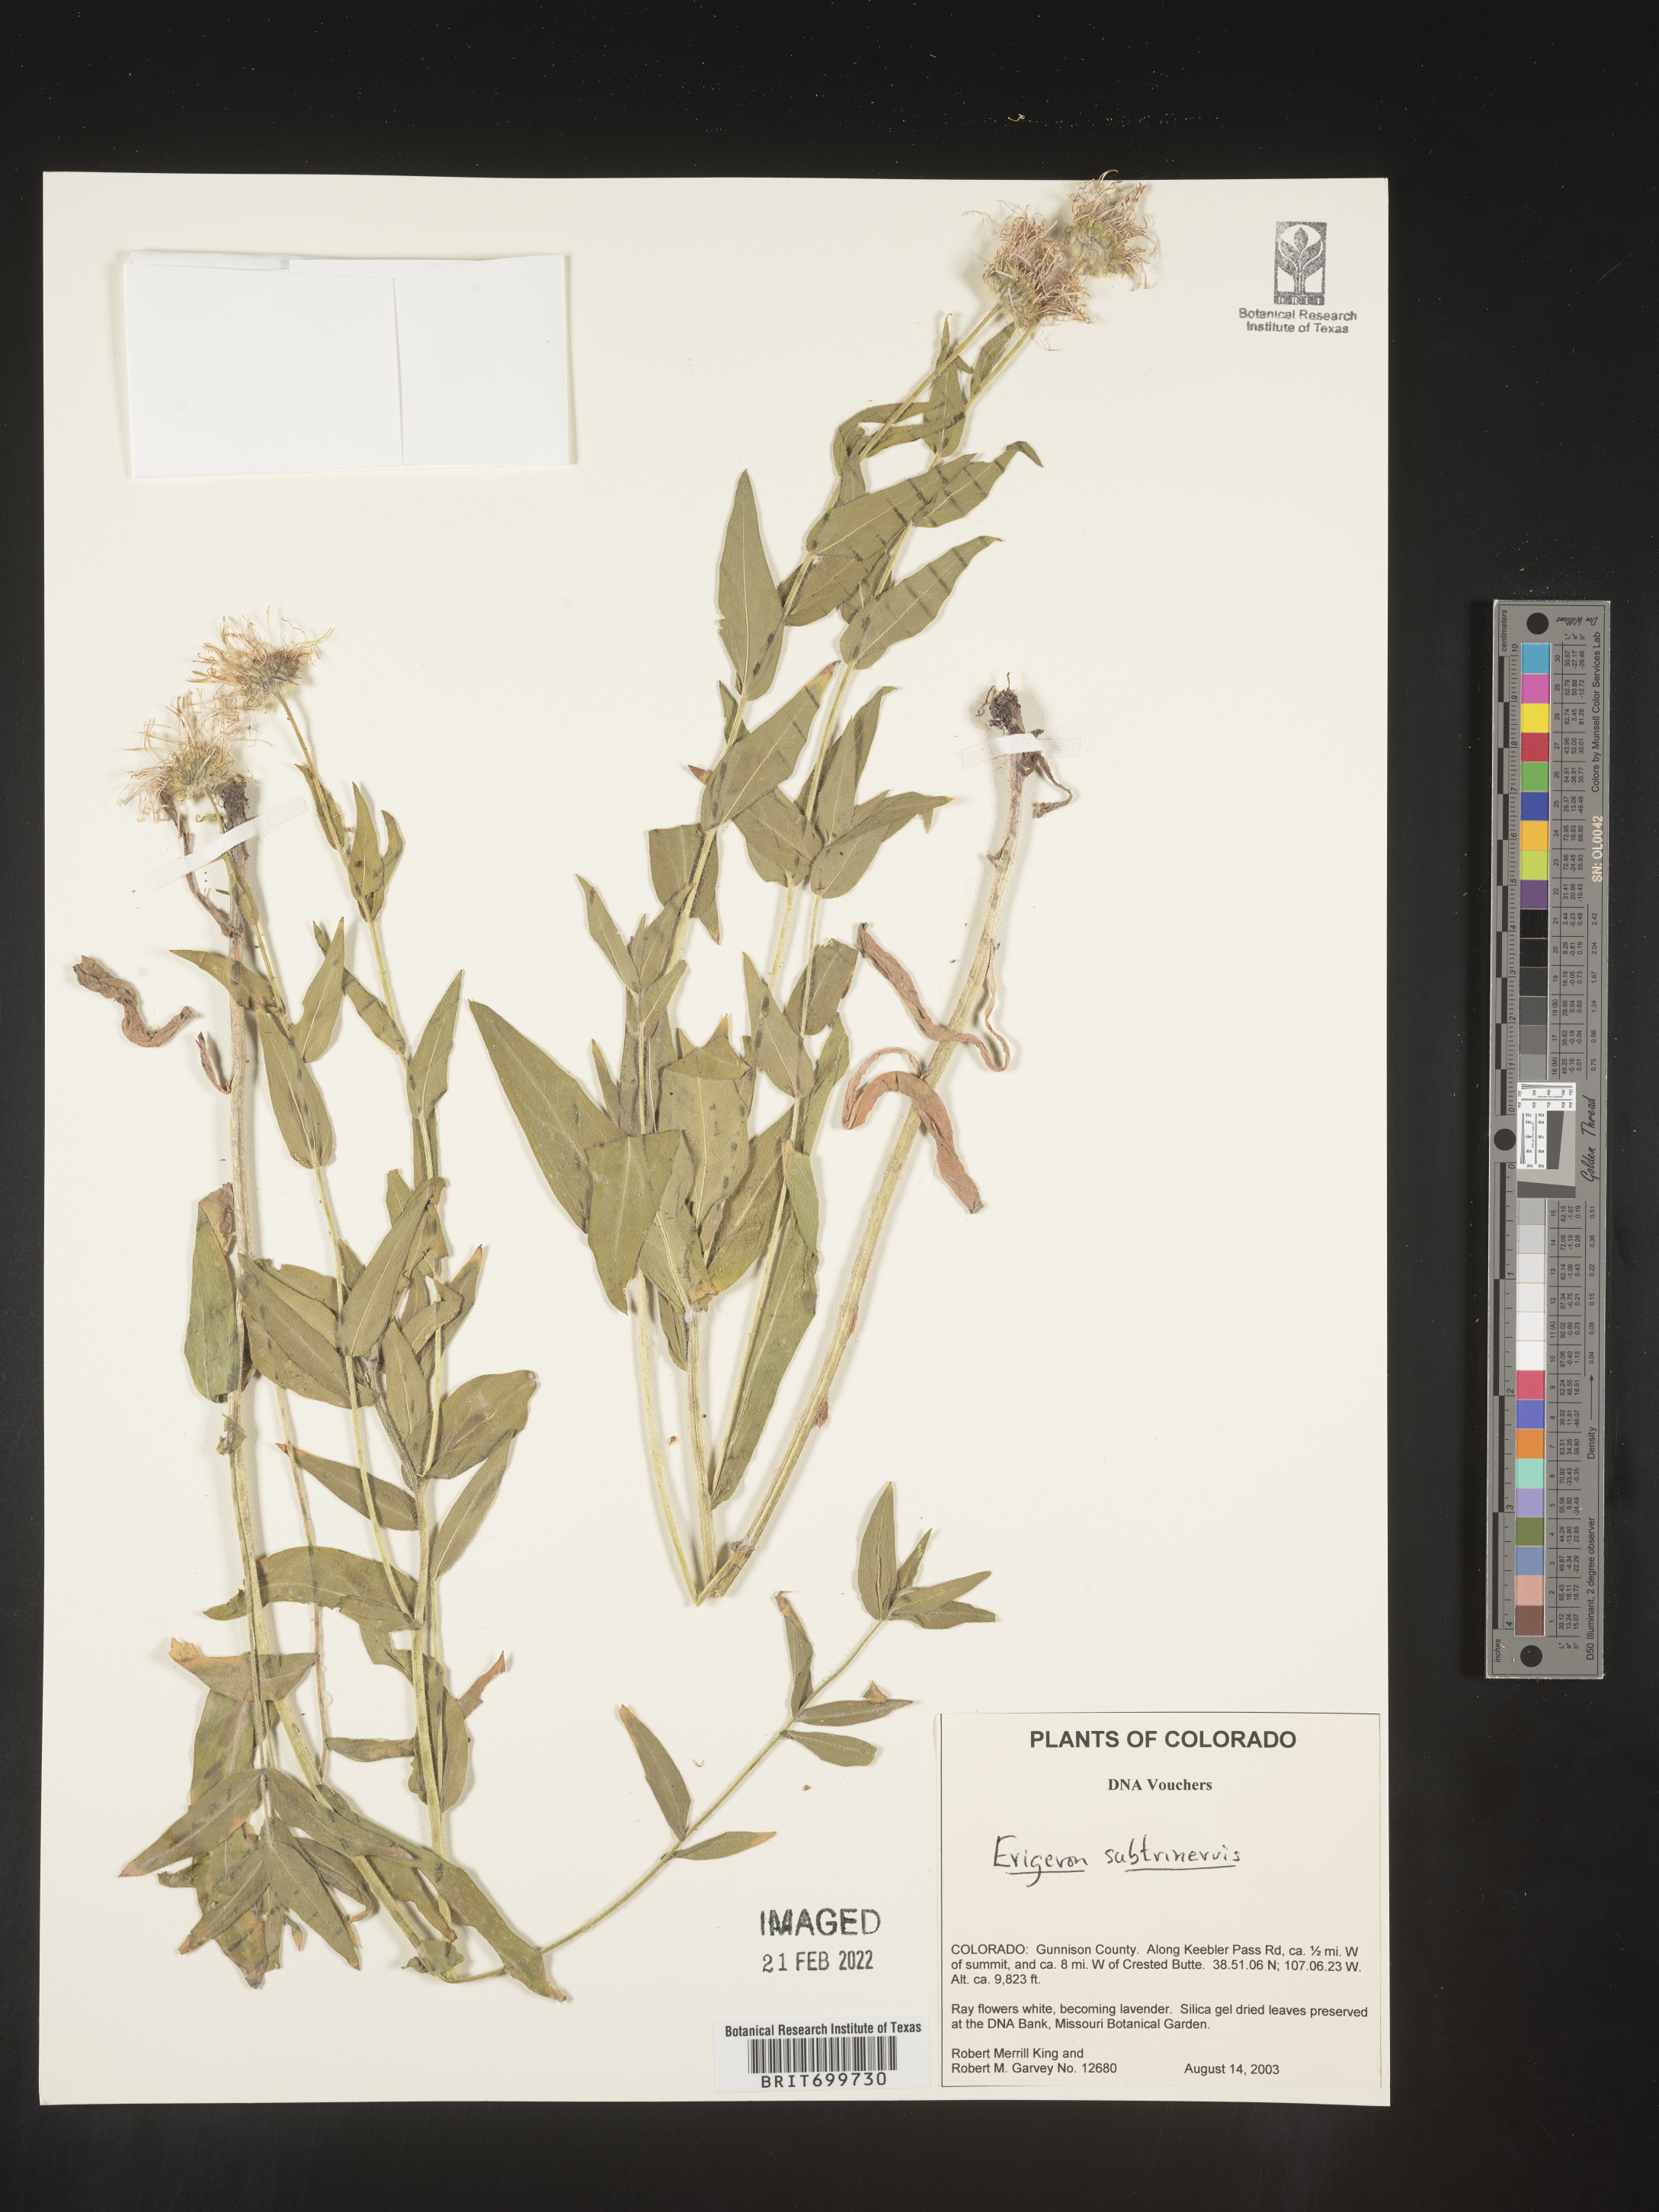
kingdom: Plantae
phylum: Tracheophyta
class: Magnoliopsida
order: Asterales
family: Asteraceae
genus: Erigeron
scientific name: Erigeron subtrinervis
